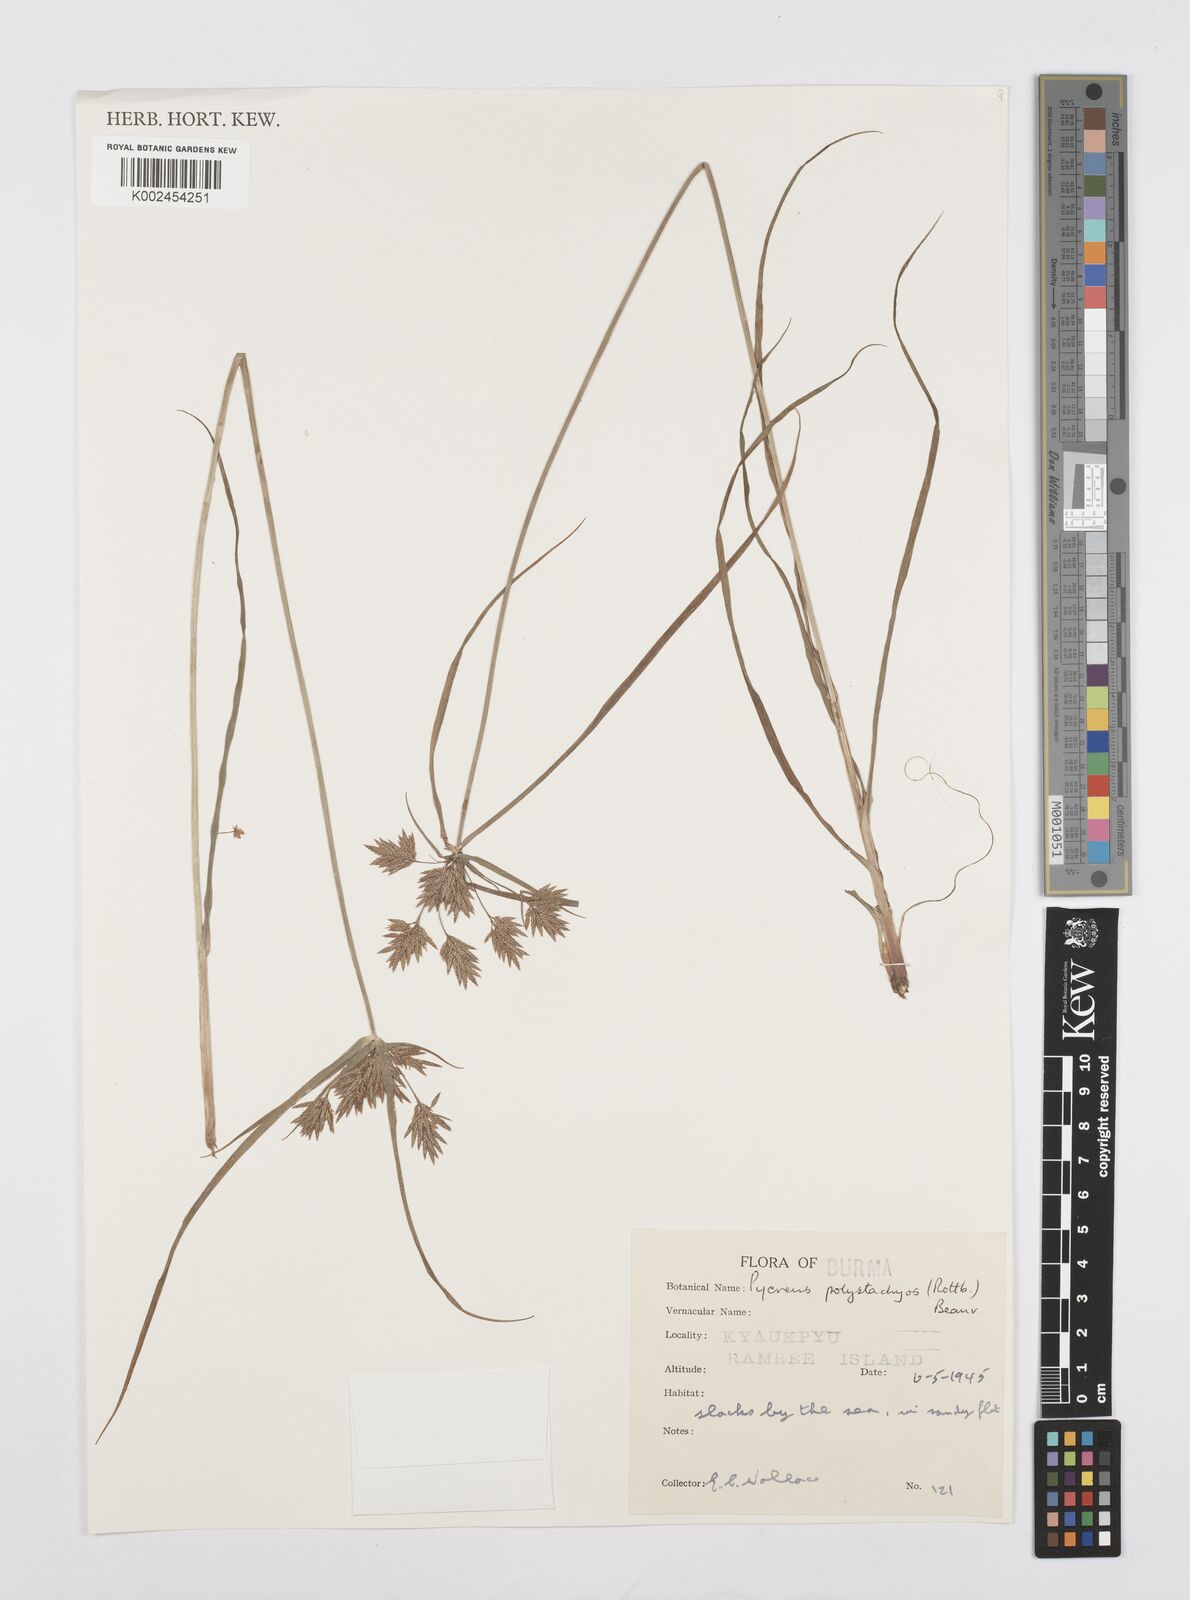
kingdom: Plantae
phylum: Tracheophyta
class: Liliopsida
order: Poales
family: Cyperaceae
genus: Cyperus
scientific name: Cyperus polystachyos
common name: Bunchy flat sedge
